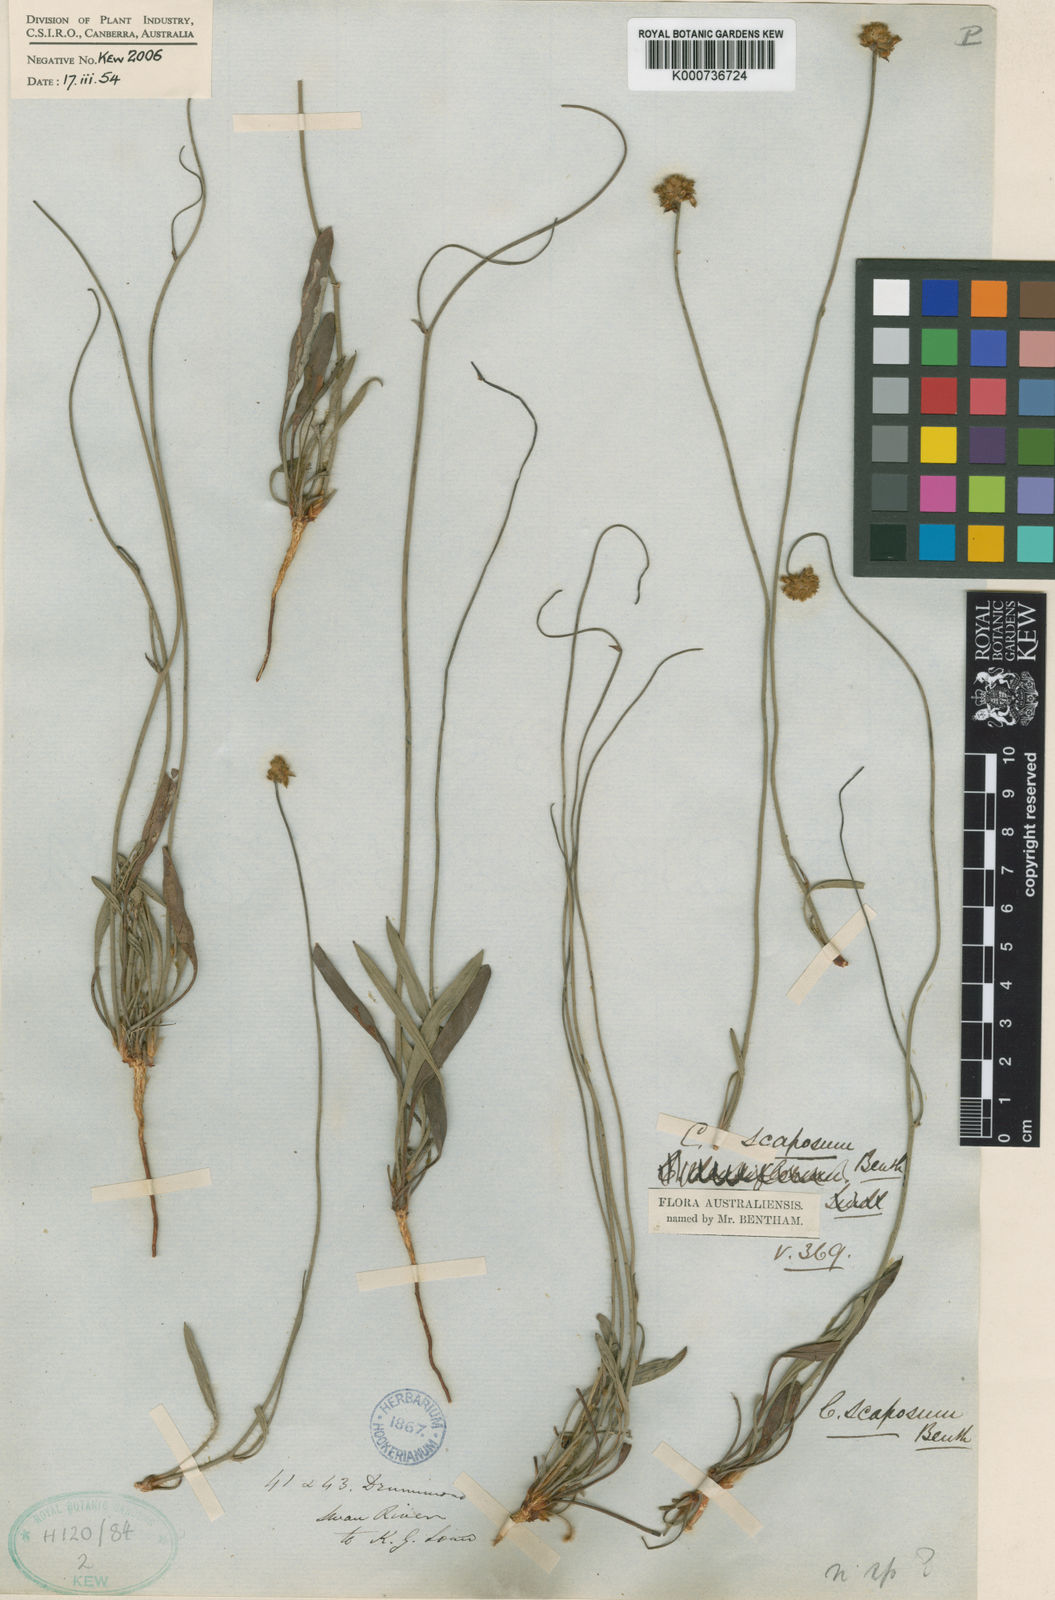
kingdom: Plantae
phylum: Tracheophyta
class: Magnoliopsida
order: Proteales
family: Proteaceae
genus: Conospermum
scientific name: Conospermum scaposum
